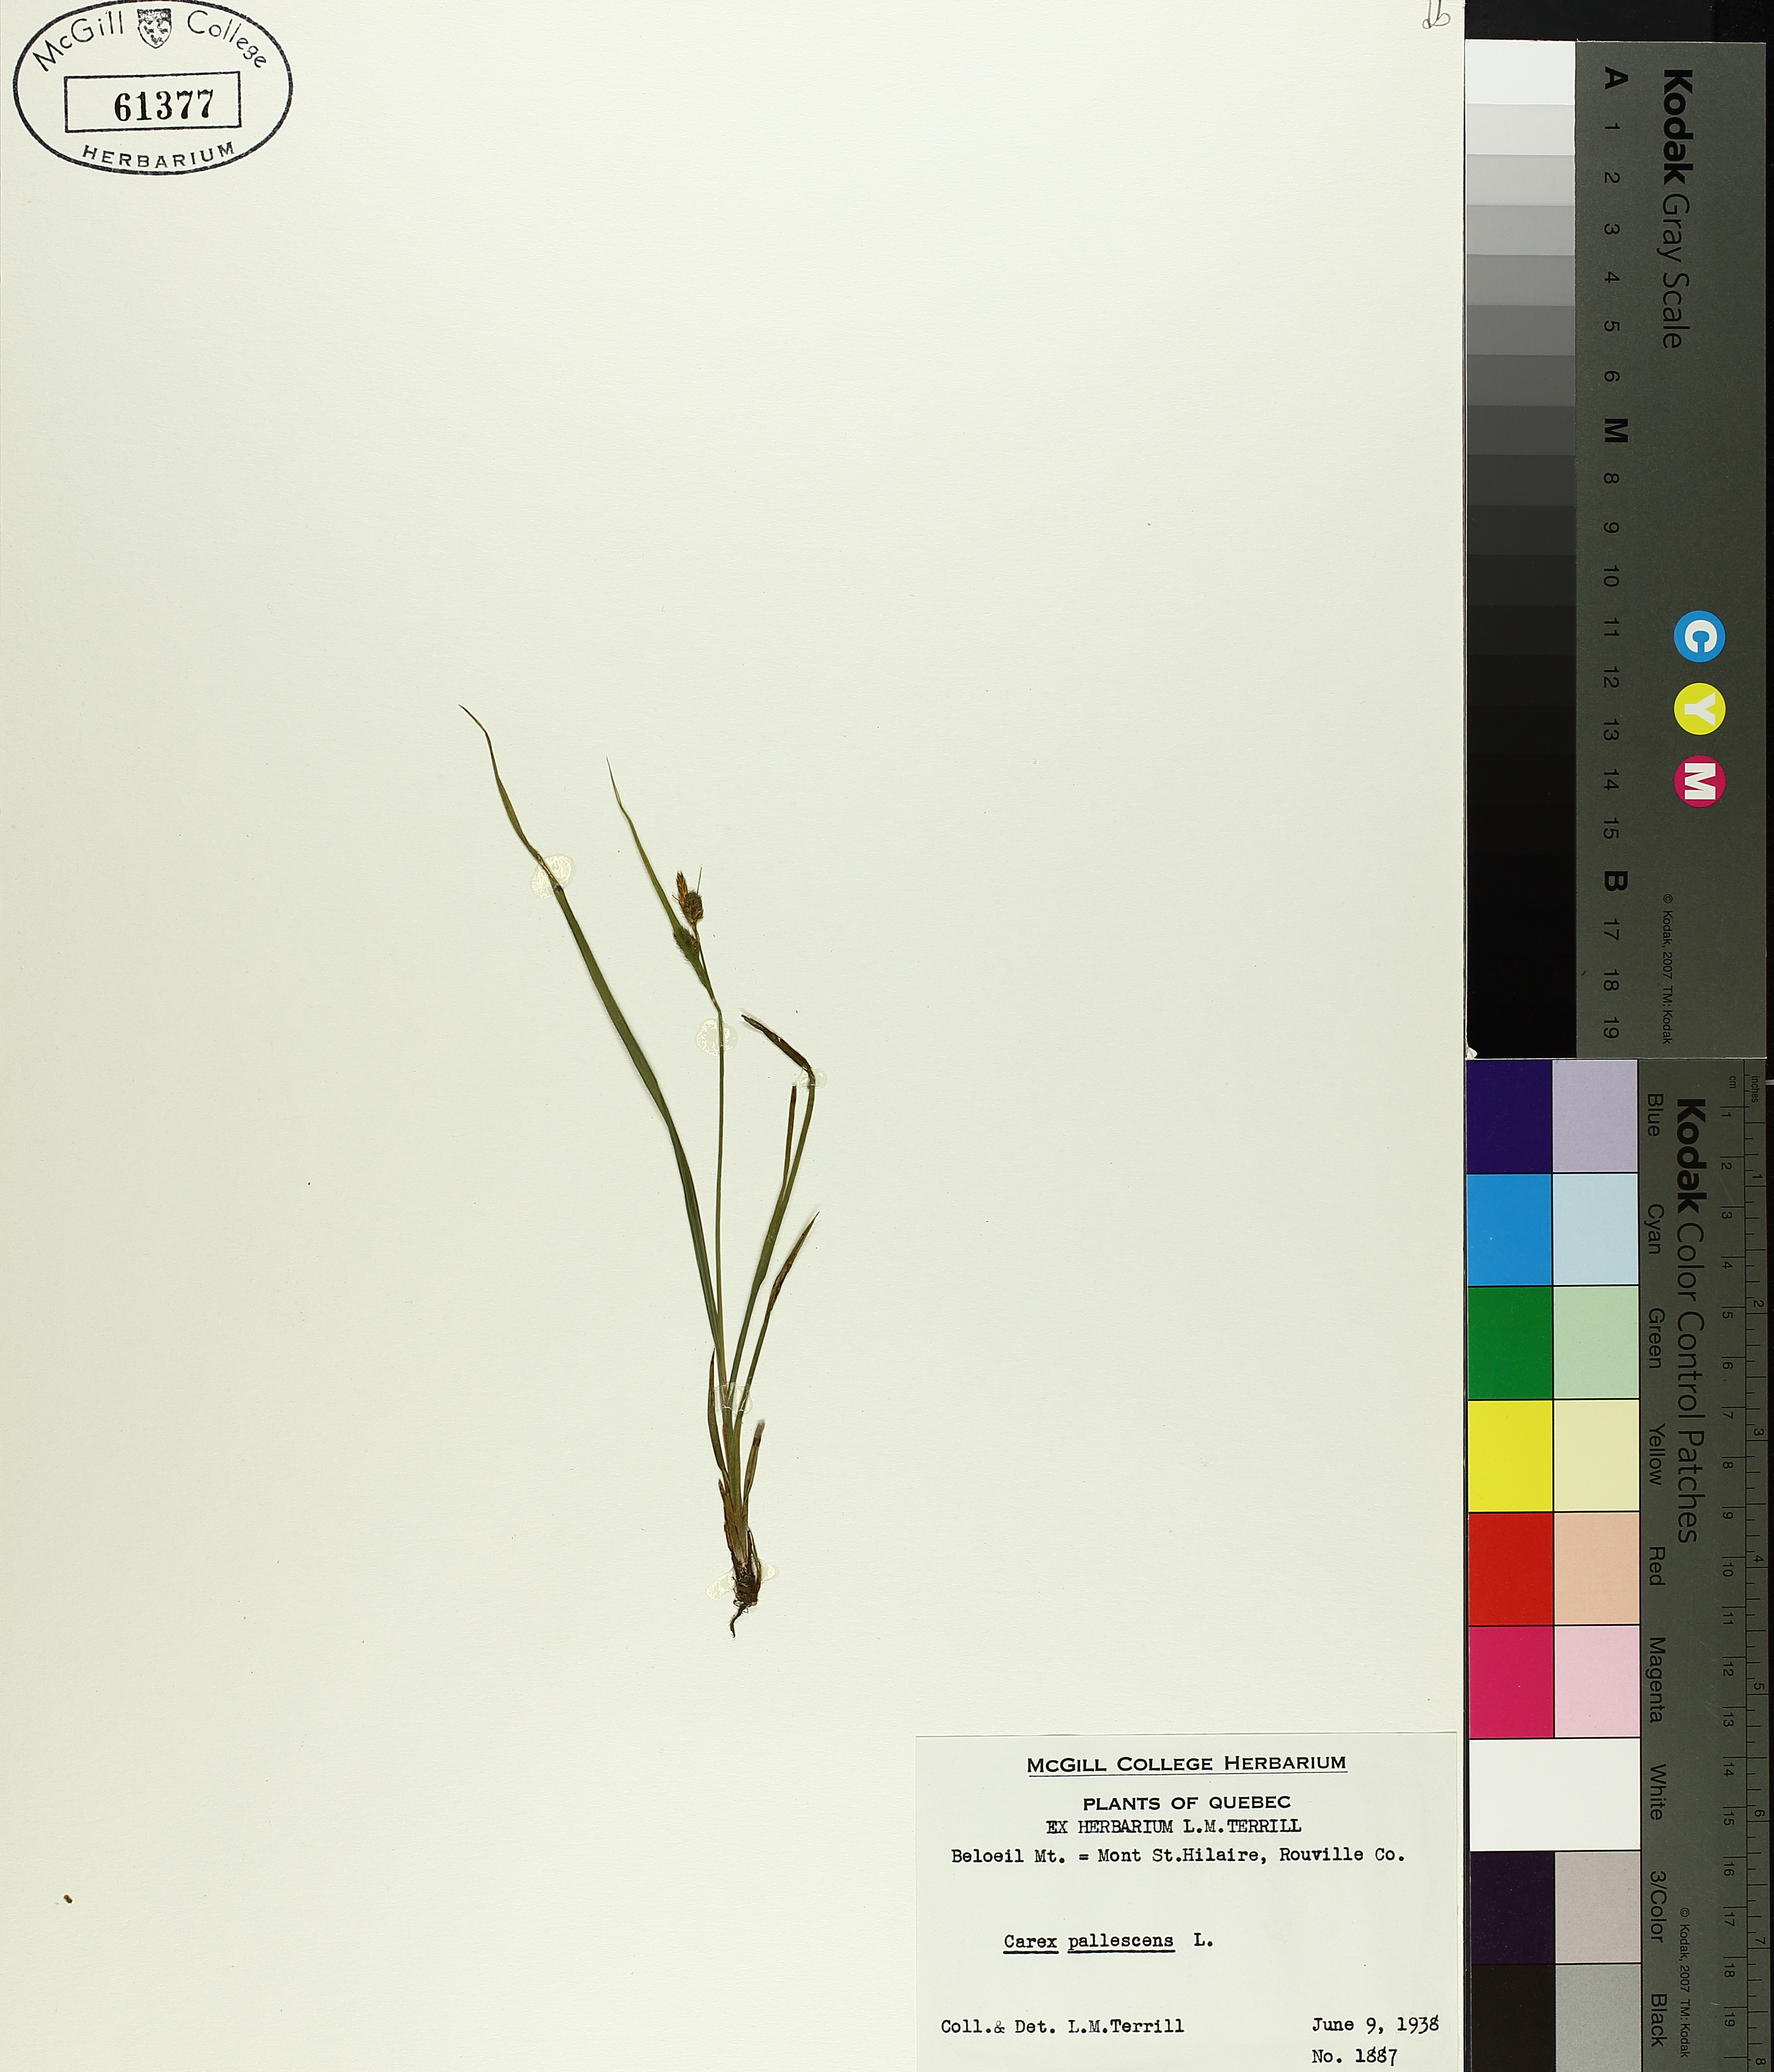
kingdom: Plantae
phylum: Tracheophyta
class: Liliopsida
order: Poales
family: Cyperaceae
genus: Carex
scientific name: Carex pallescens
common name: Pale sedge
